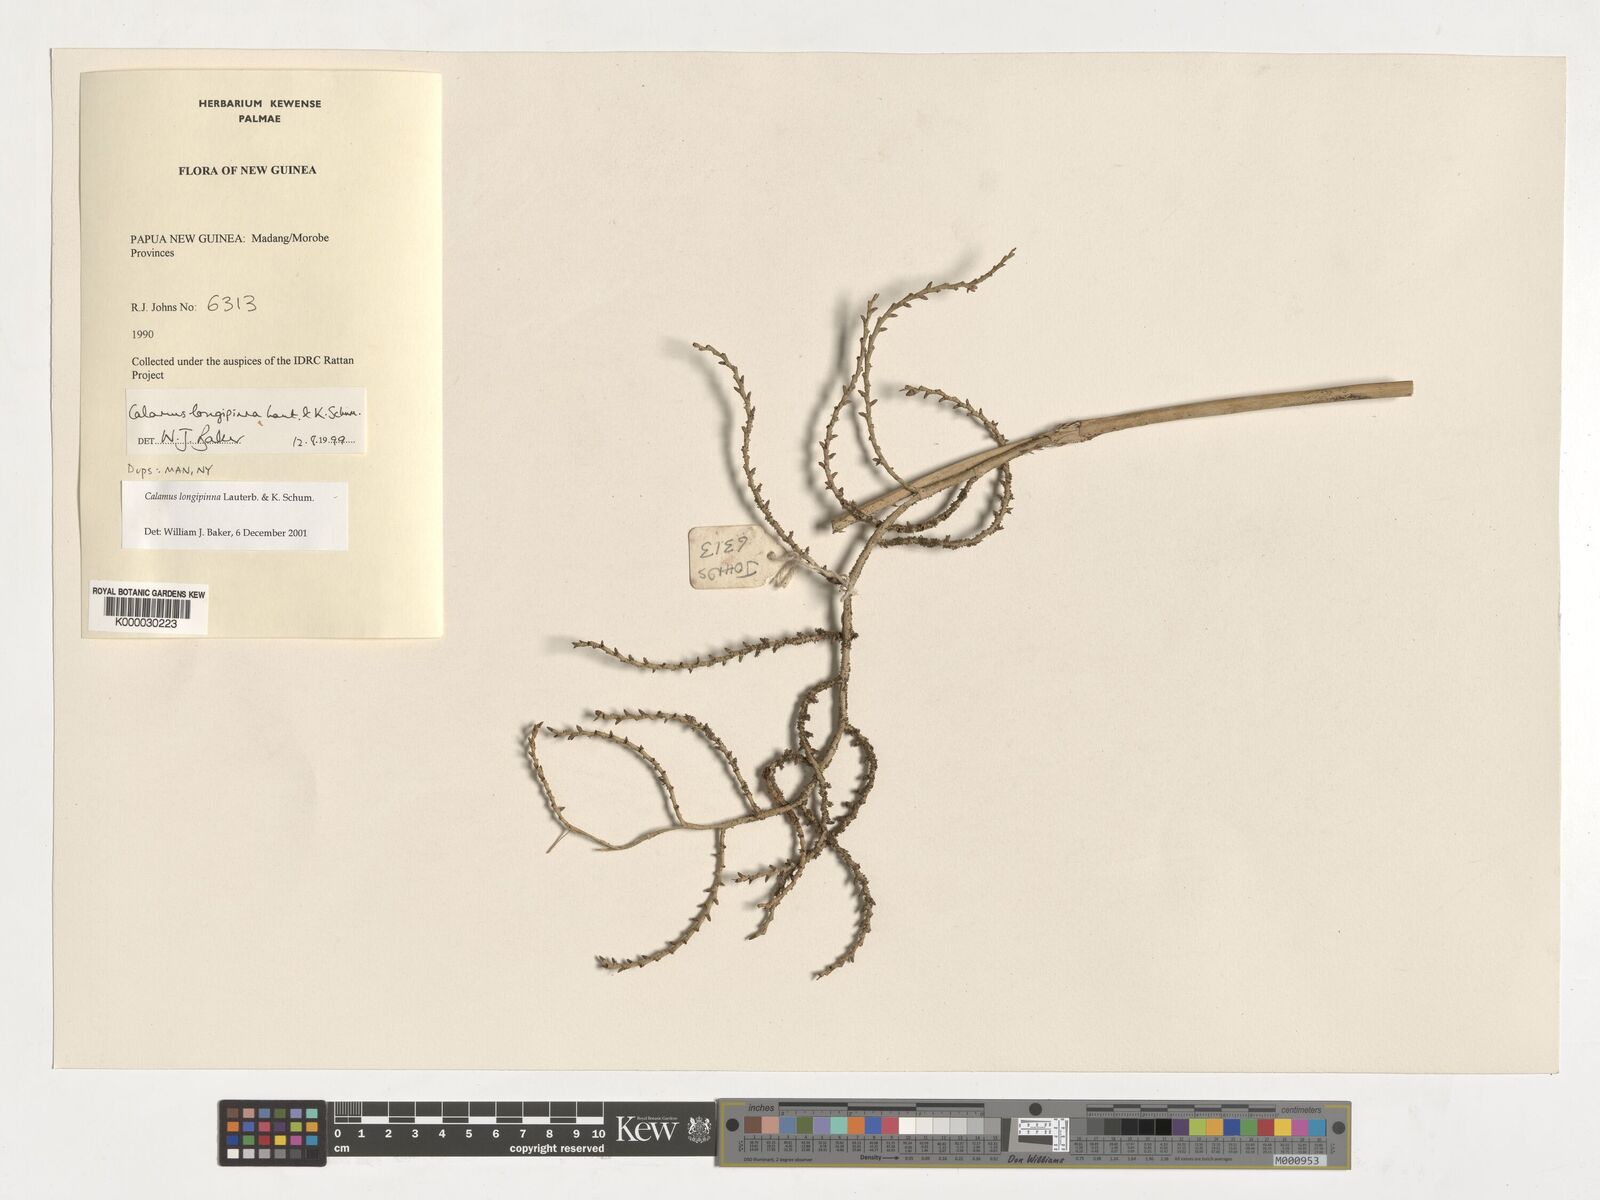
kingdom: Plantae
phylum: Tracheophyta
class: Liliopsida
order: Arecales
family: Arecaceae
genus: Calamus
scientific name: Calamus longipinna
